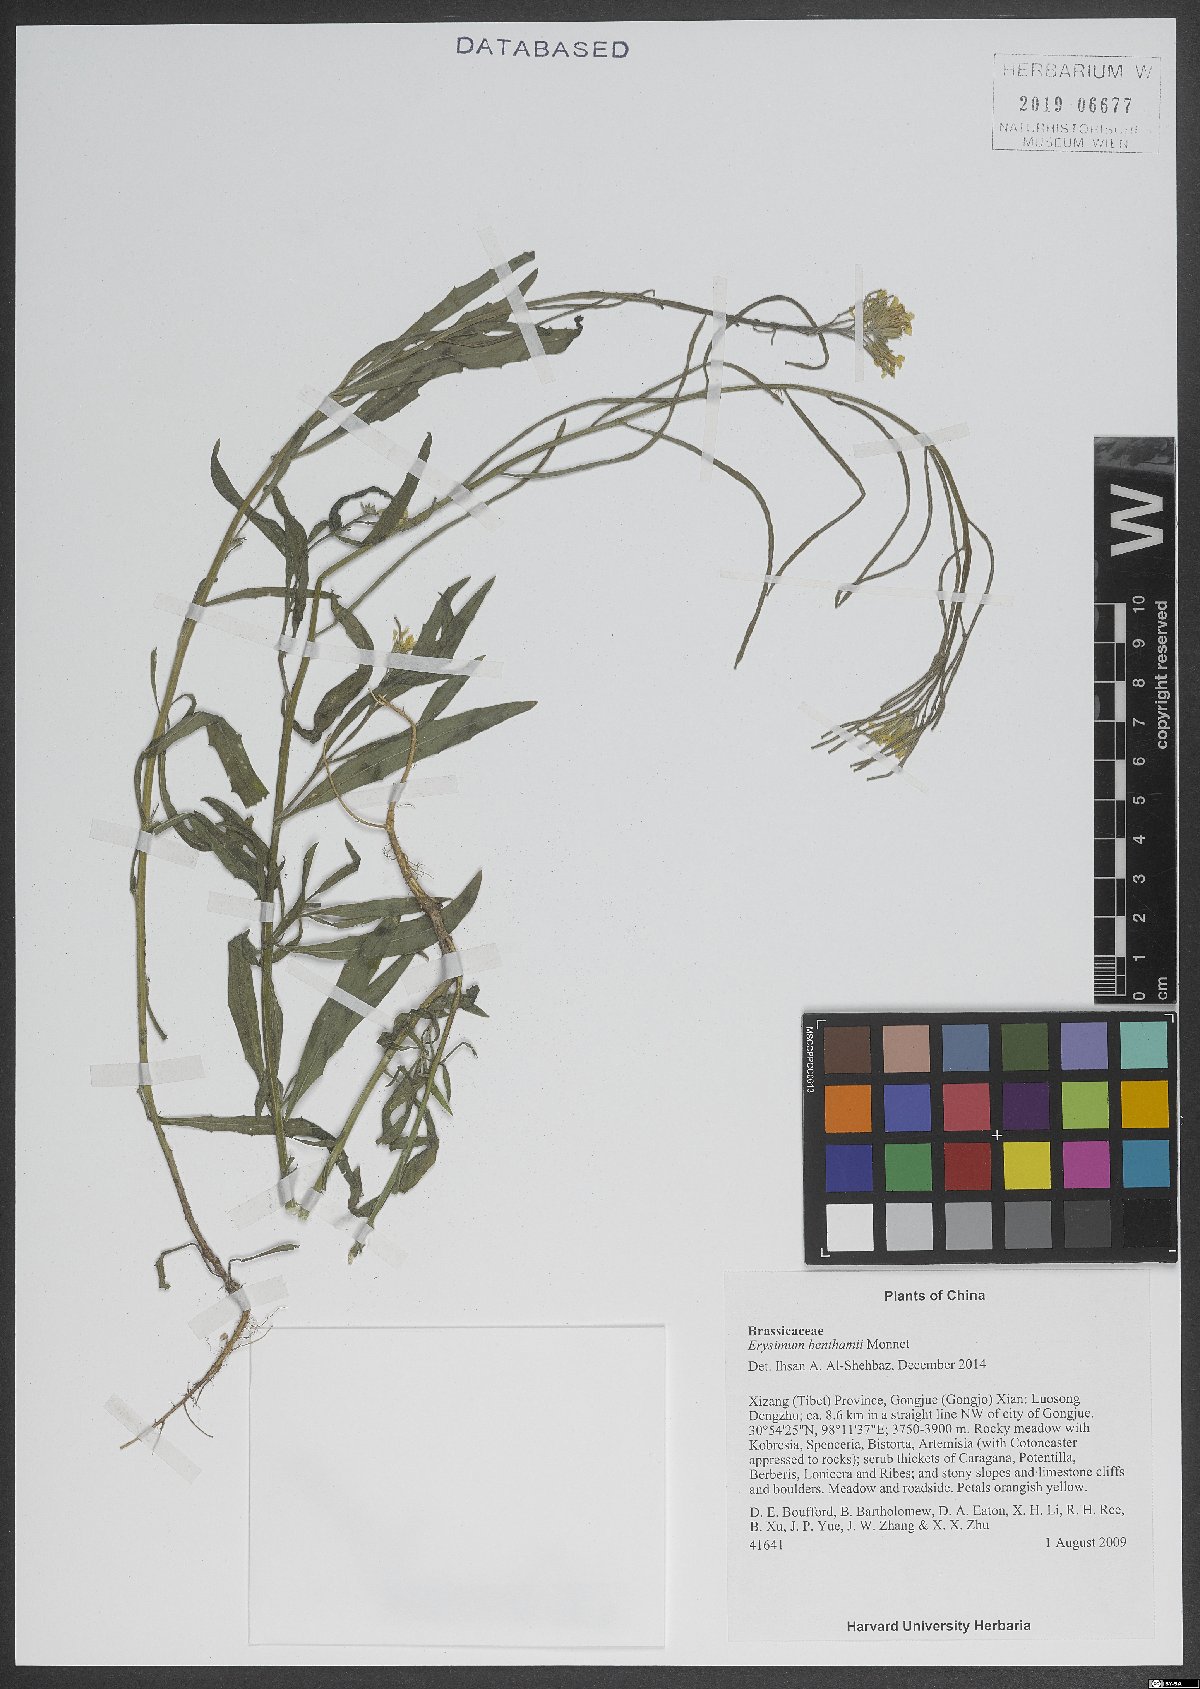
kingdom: Plantae
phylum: Tracheophyta
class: Magnoliopsida
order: Brassicales
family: Brassicaceae
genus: Erysimum
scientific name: Erysimum benthamii
